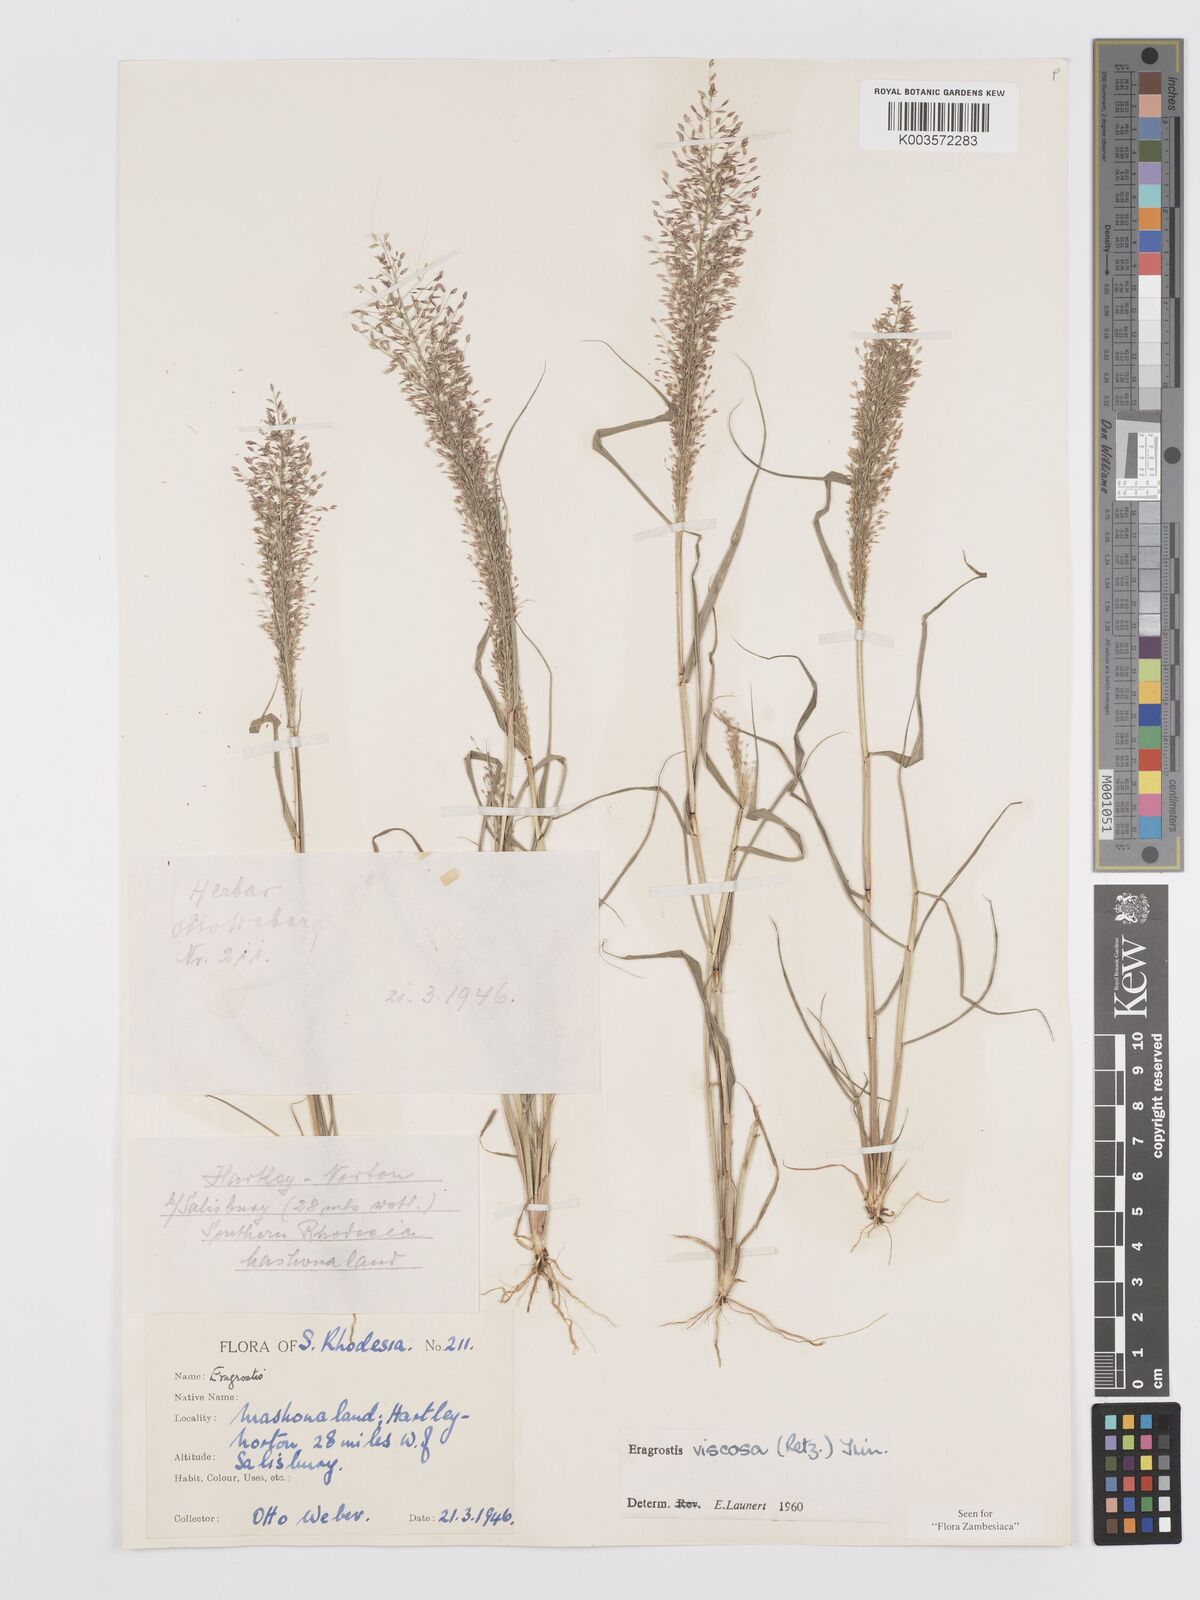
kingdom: Plantae
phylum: Tracheophyta
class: Liliopsida
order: Poales
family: Poaceae
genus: Eragrostis
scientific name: Eragrostis
